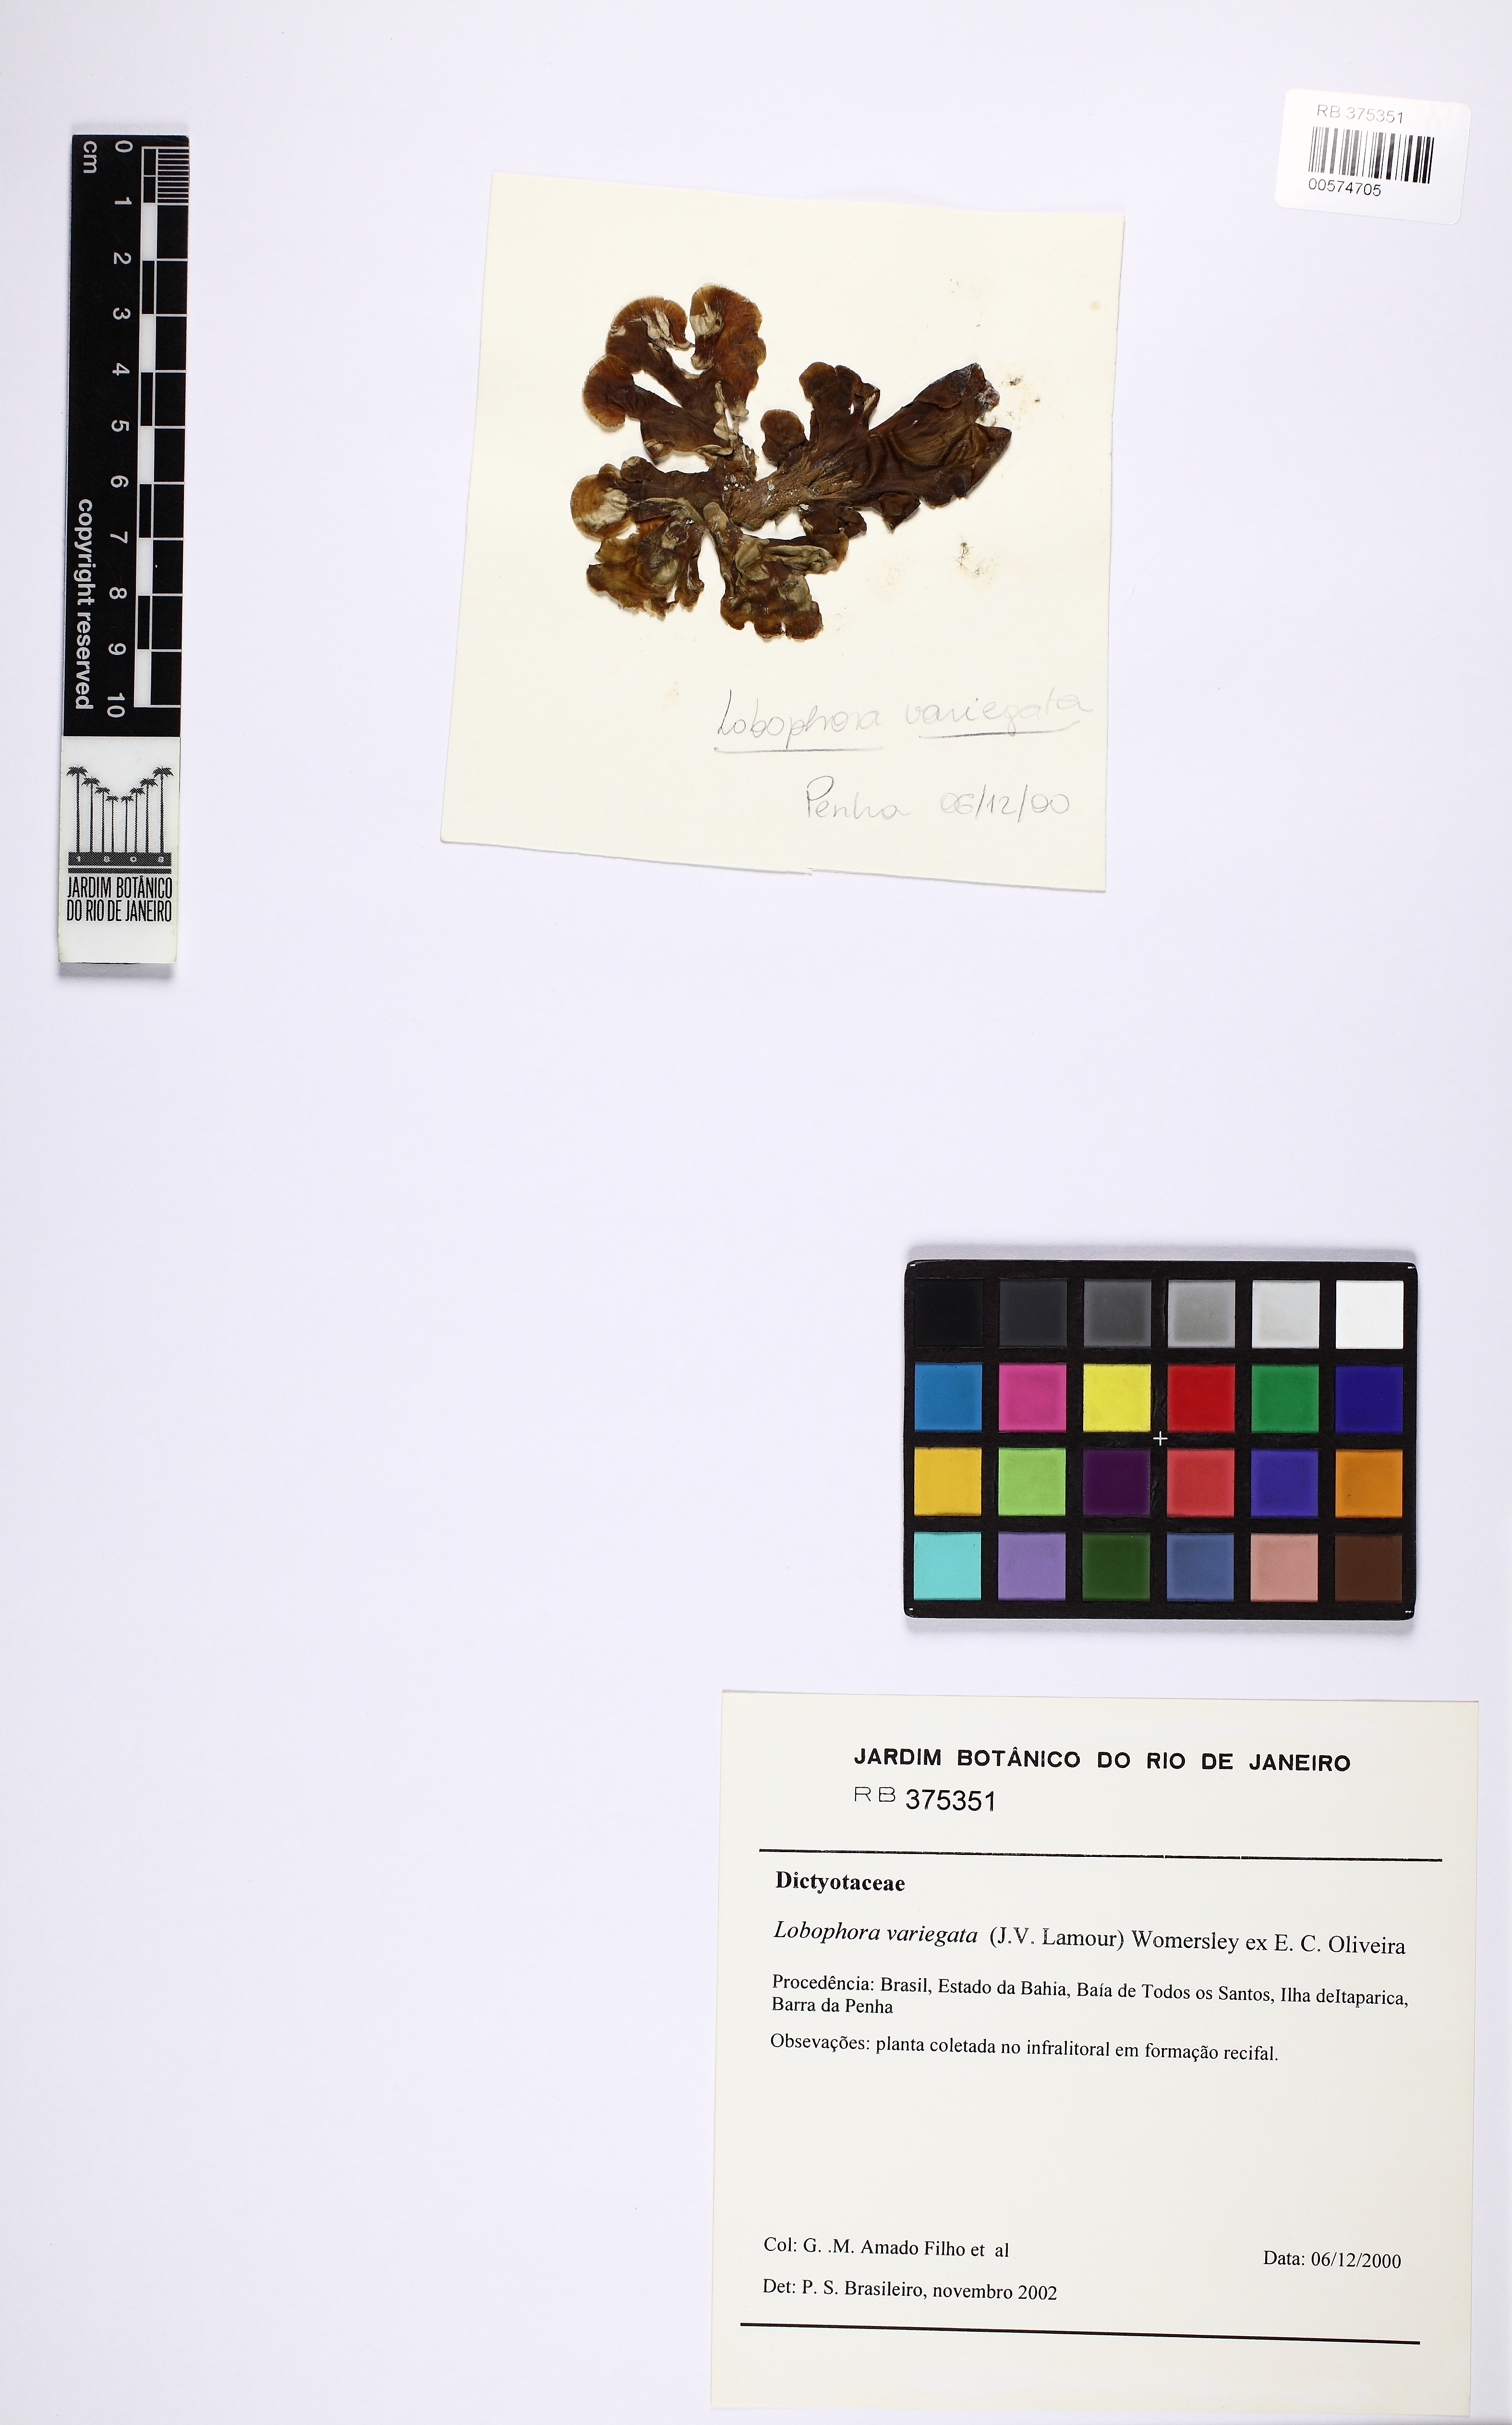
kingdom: Chromista
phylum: Ochrophyta
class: Phaeophyceae
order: Dictyotales
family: Dictyotaceae
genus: Lobophora
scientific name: Lobophora variegata
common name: Encrusting fan-leaf algae
